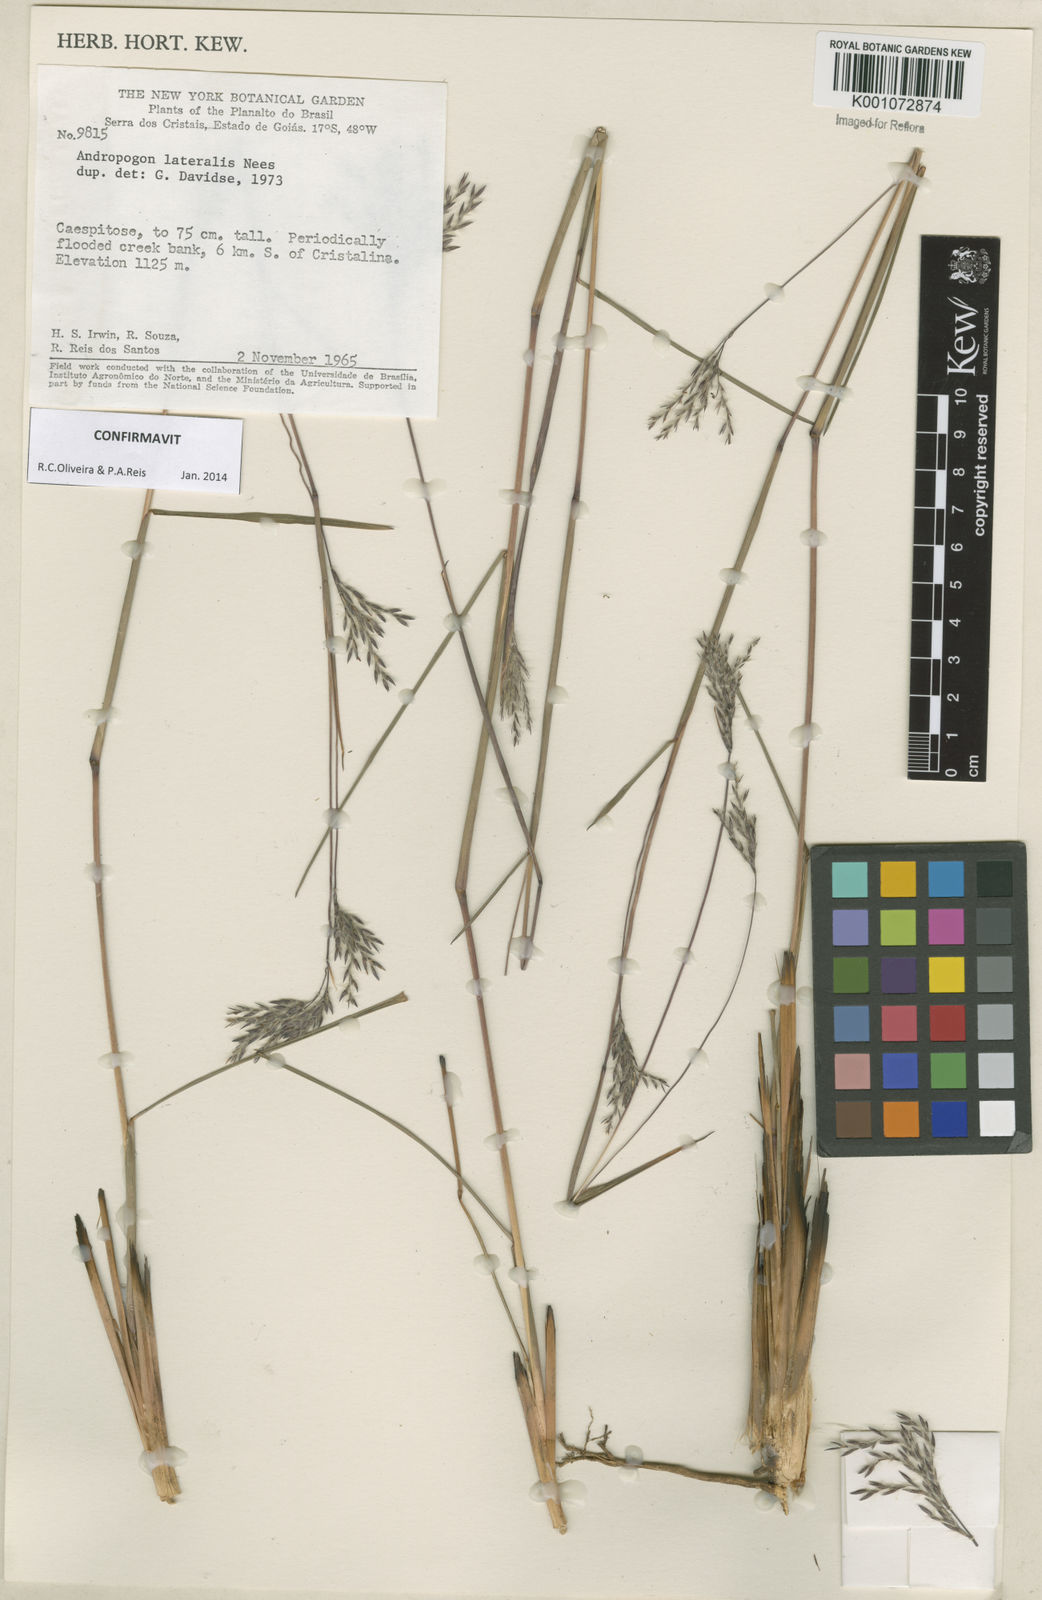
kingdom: Plantae
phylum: Tracheophyta
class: Liliopsida
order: Poales
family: Poaceae
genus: Andropogon
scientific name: Andropogon lateralis
